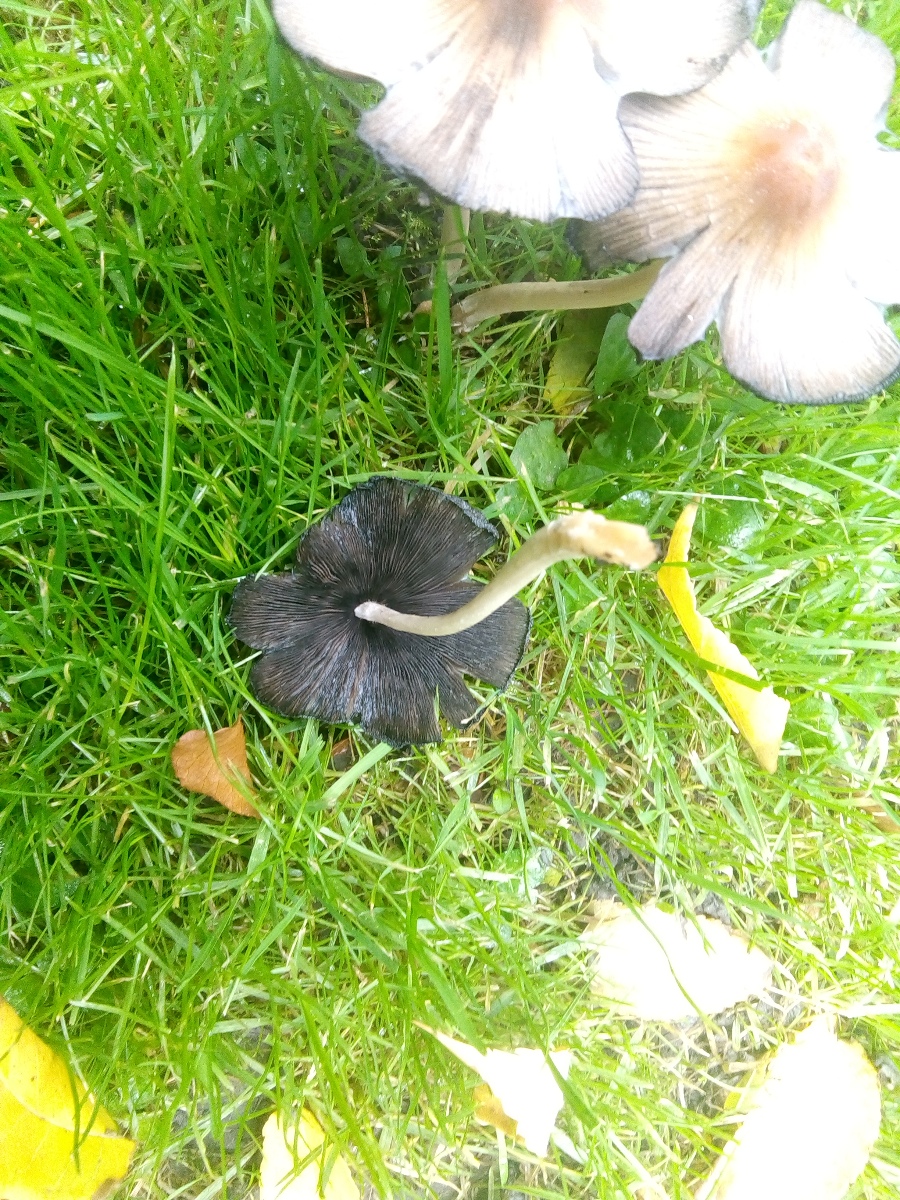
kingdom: Fungi
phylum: Basidiomycota
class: Agaricomycetes
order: Agaricales
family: Psathyrellaceae
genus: Coprinellus
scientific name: Coprinellus micaceus
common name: glimmer-blækhat
